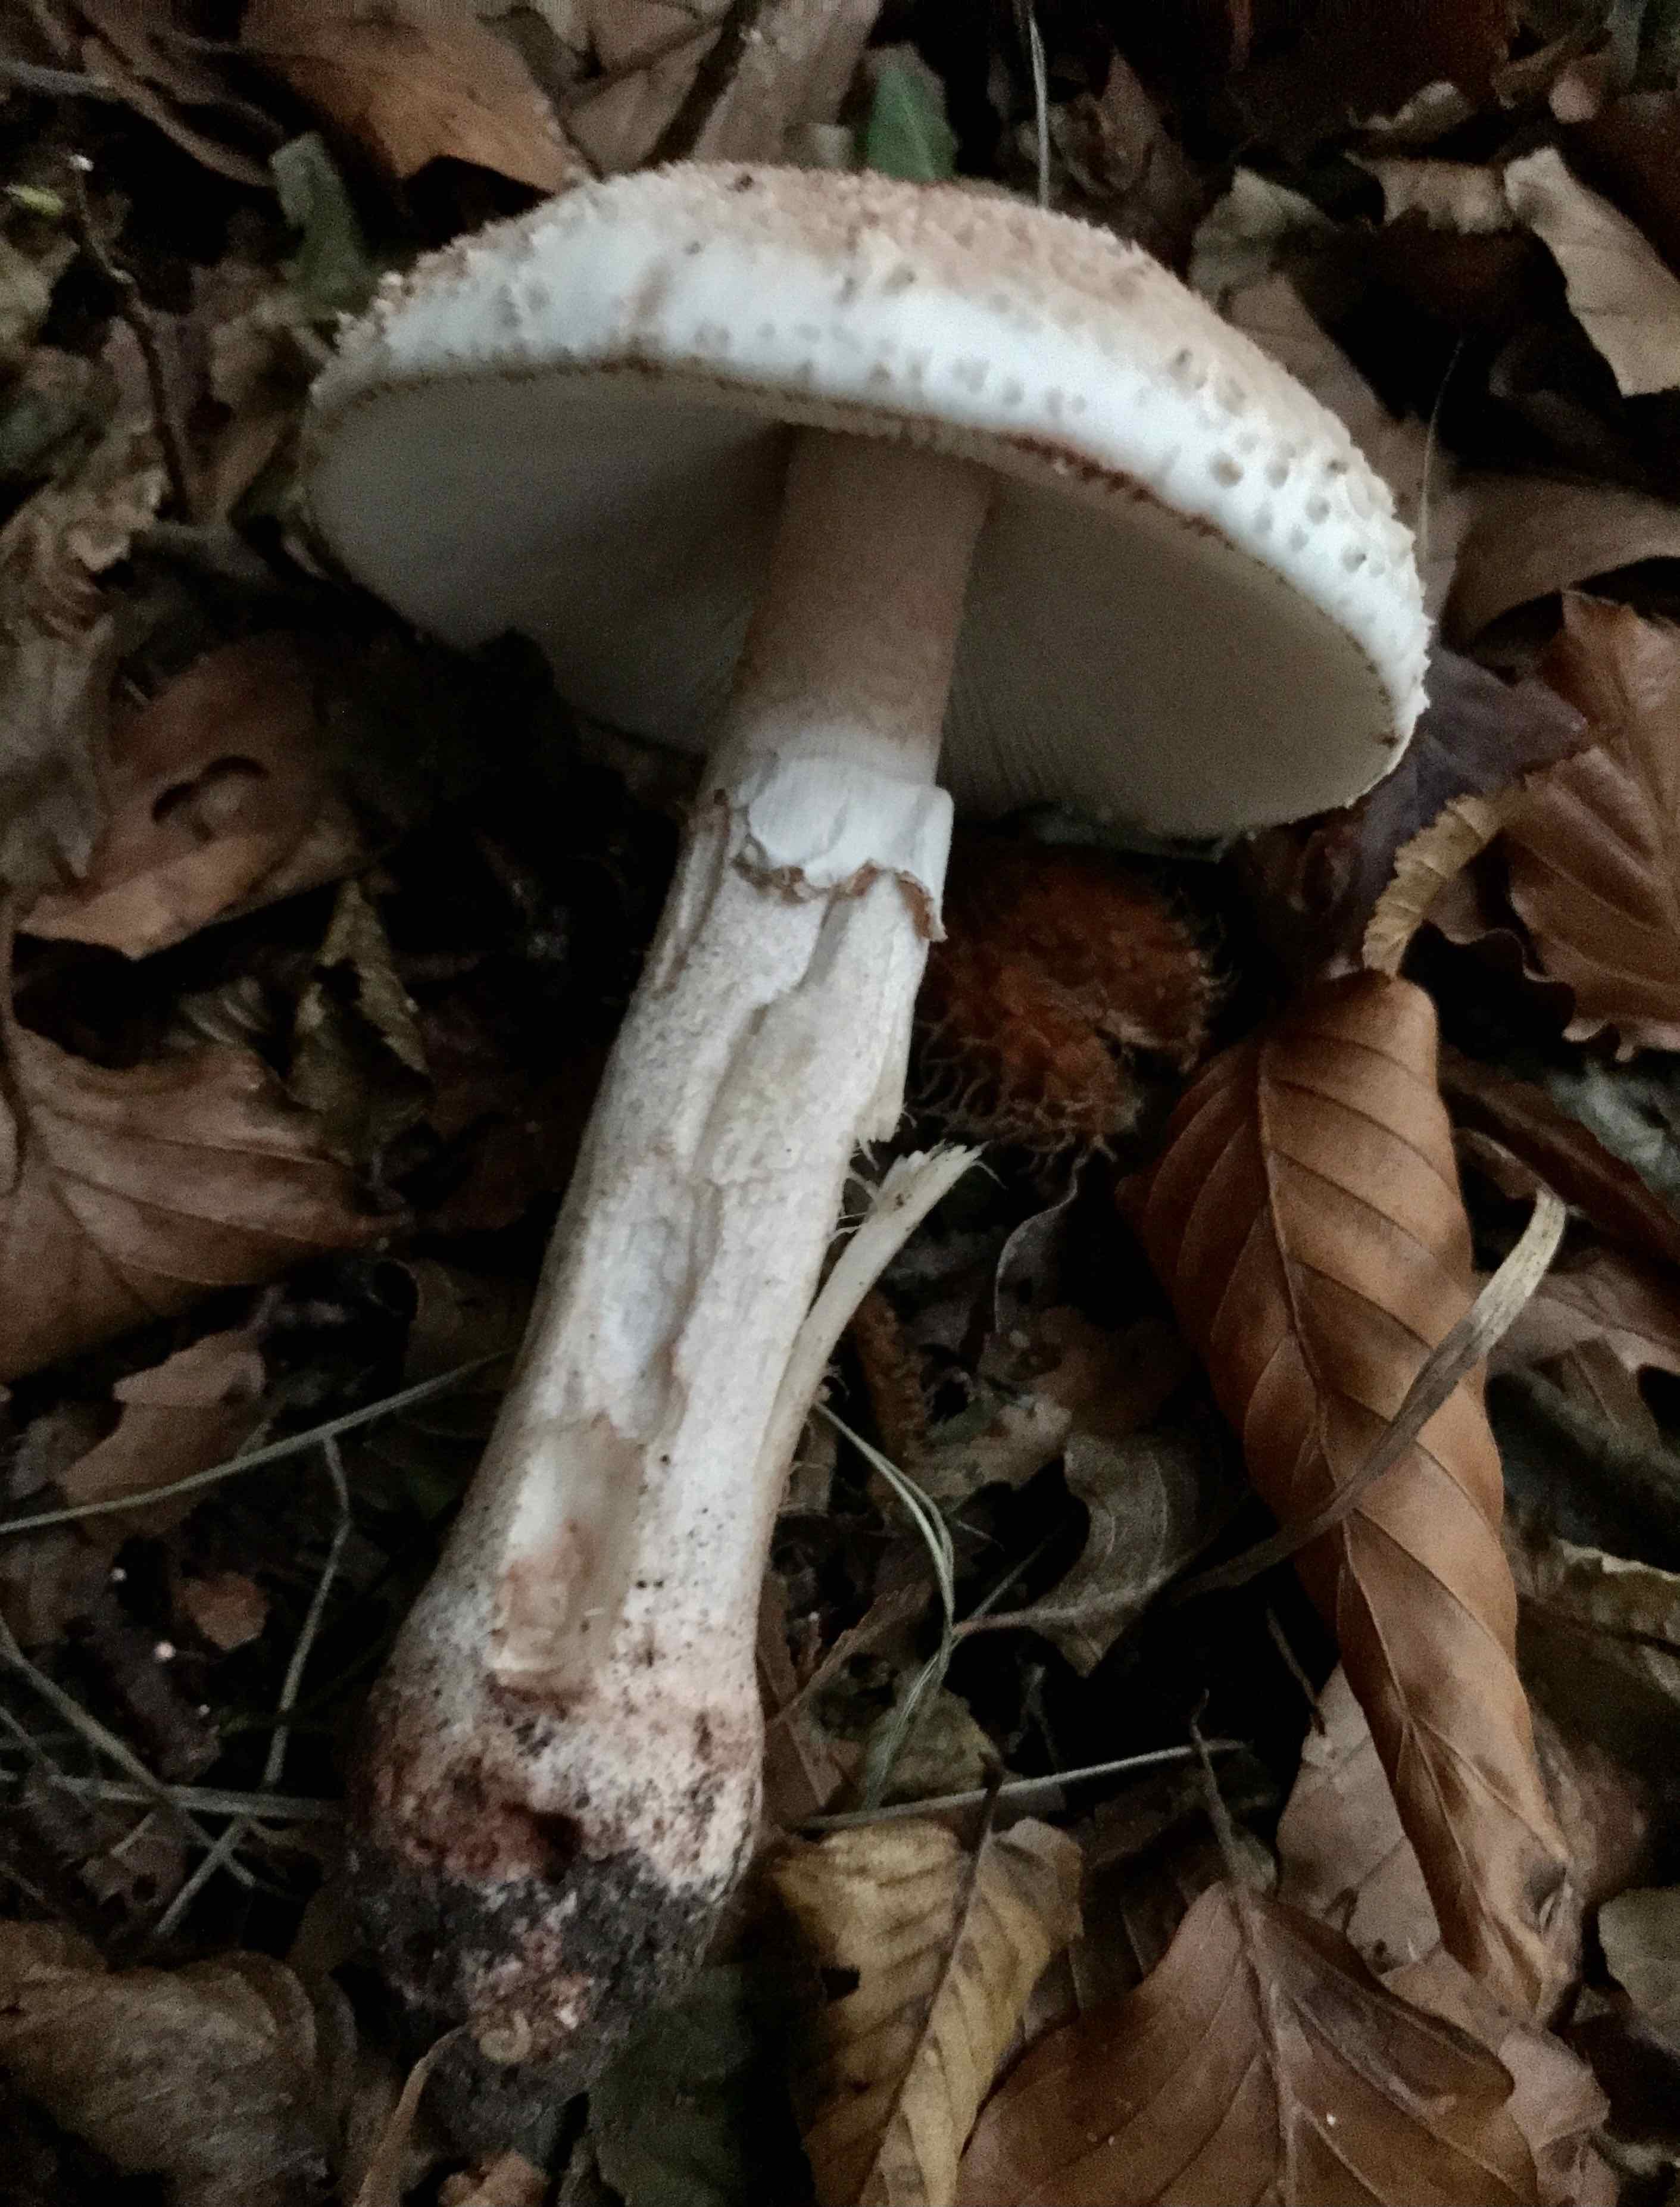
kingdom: Fungi
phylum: Basidiomycota
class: Agaricomycetes
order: Agaricales
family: Amanitaceae
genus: Amanita
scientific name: Amanita rubescens
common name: rødmende fluesvamp
